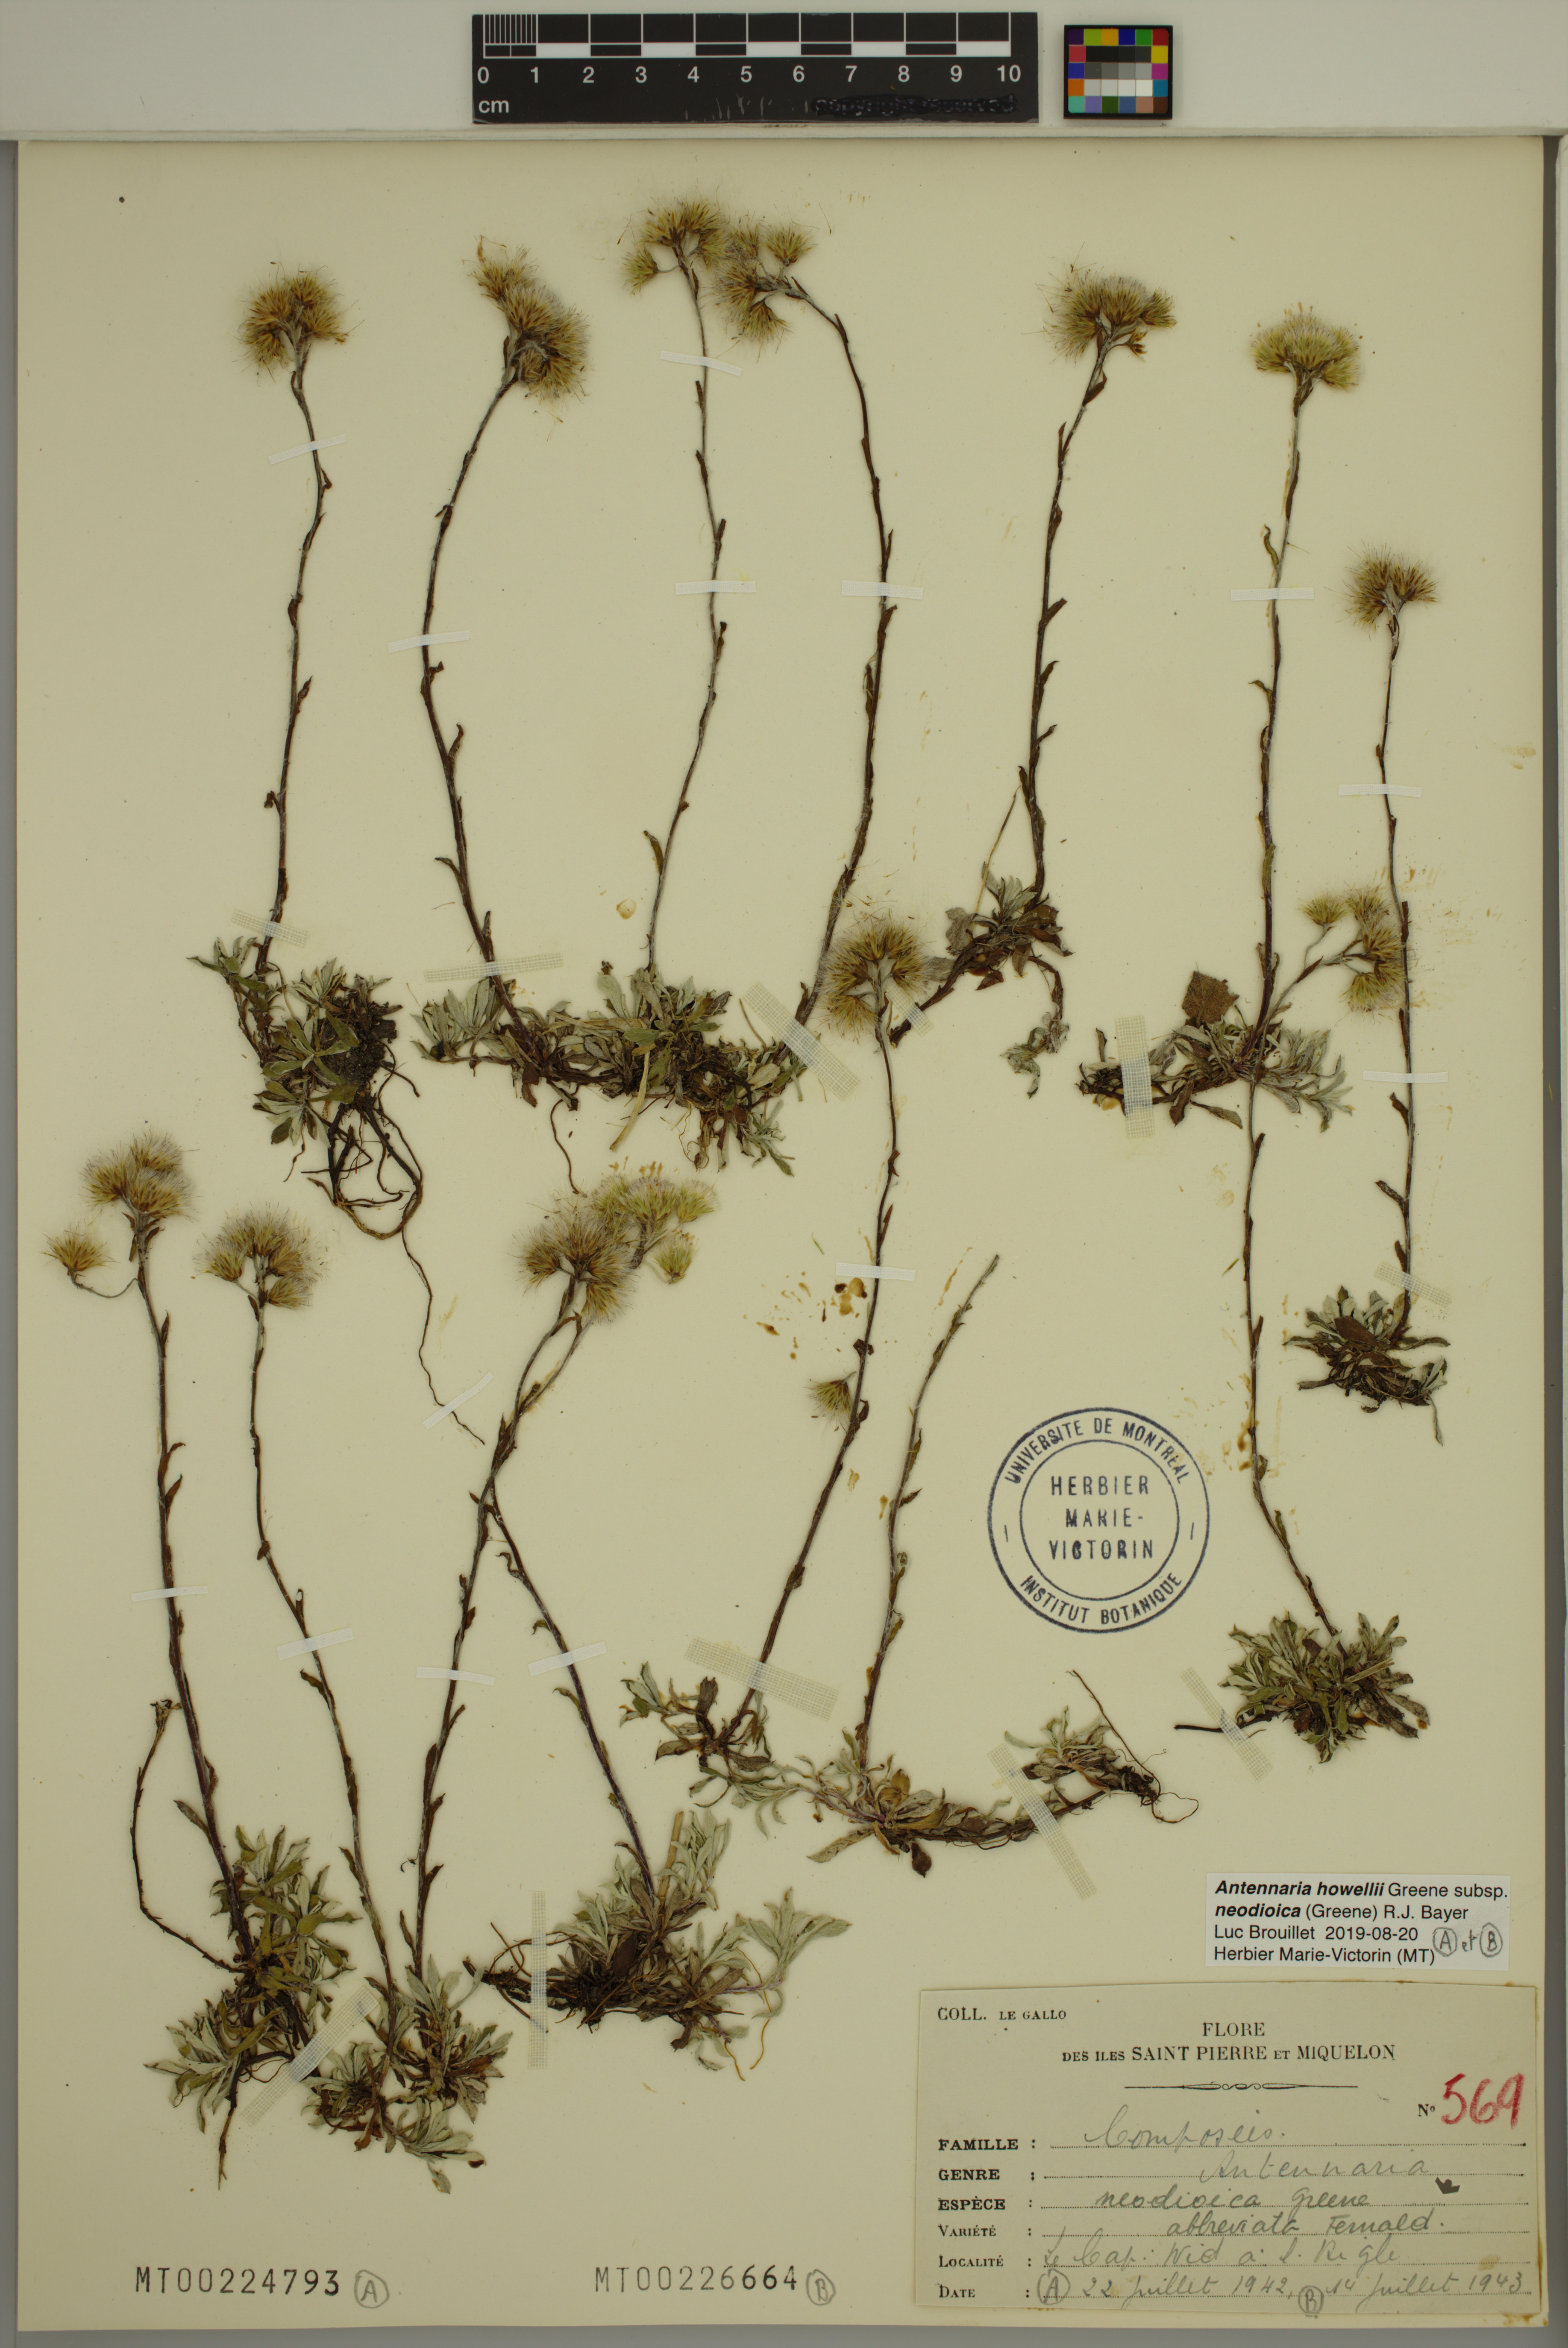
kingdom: Plantae
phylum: Tracheophyta
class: Magnoliopsida
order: Asterales
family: Asteraceae
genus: Antennaria
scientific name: Antennaria howellii
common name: Howell's pussytoes
